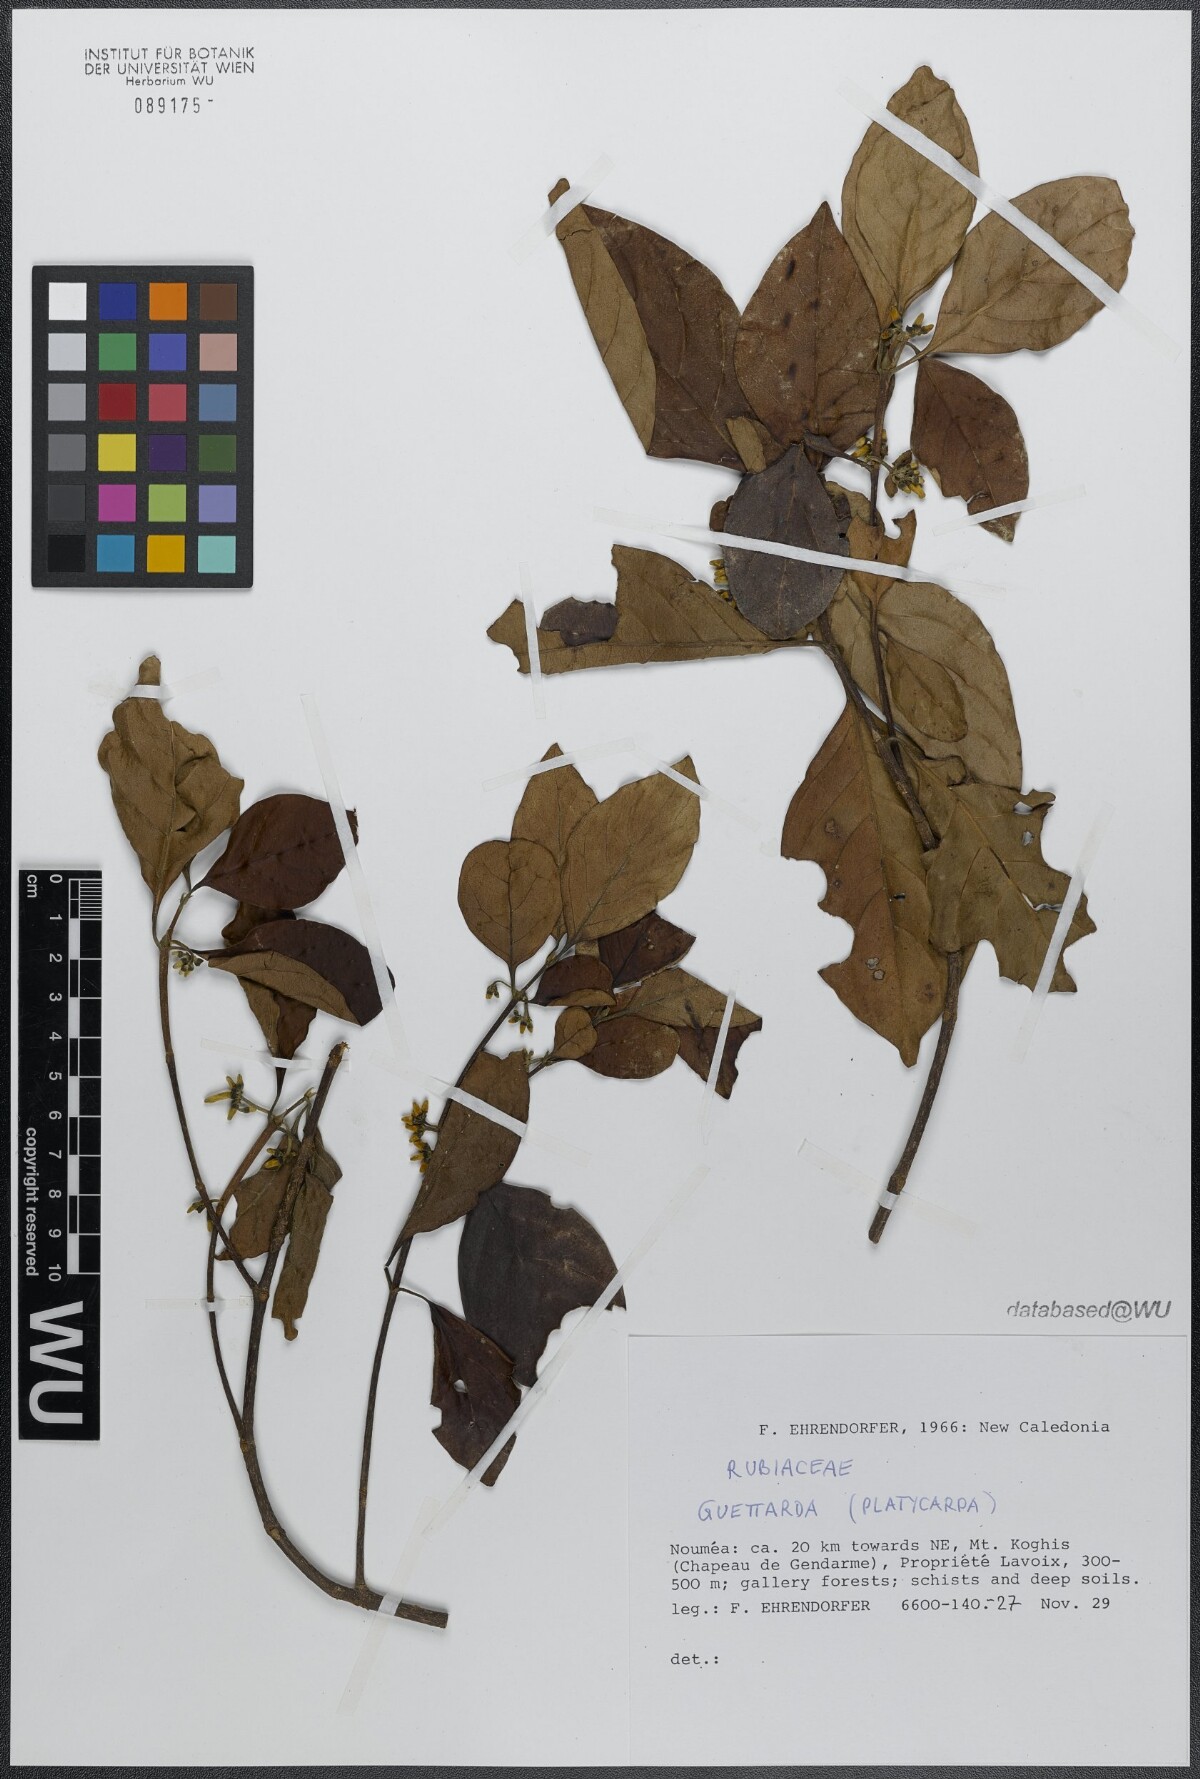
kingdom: Plantae
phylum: Tracheophyta
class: Magnoliopsida
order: Gentianales
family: Rubiaceae
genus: Timonius
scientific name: Timonius platycarpus
